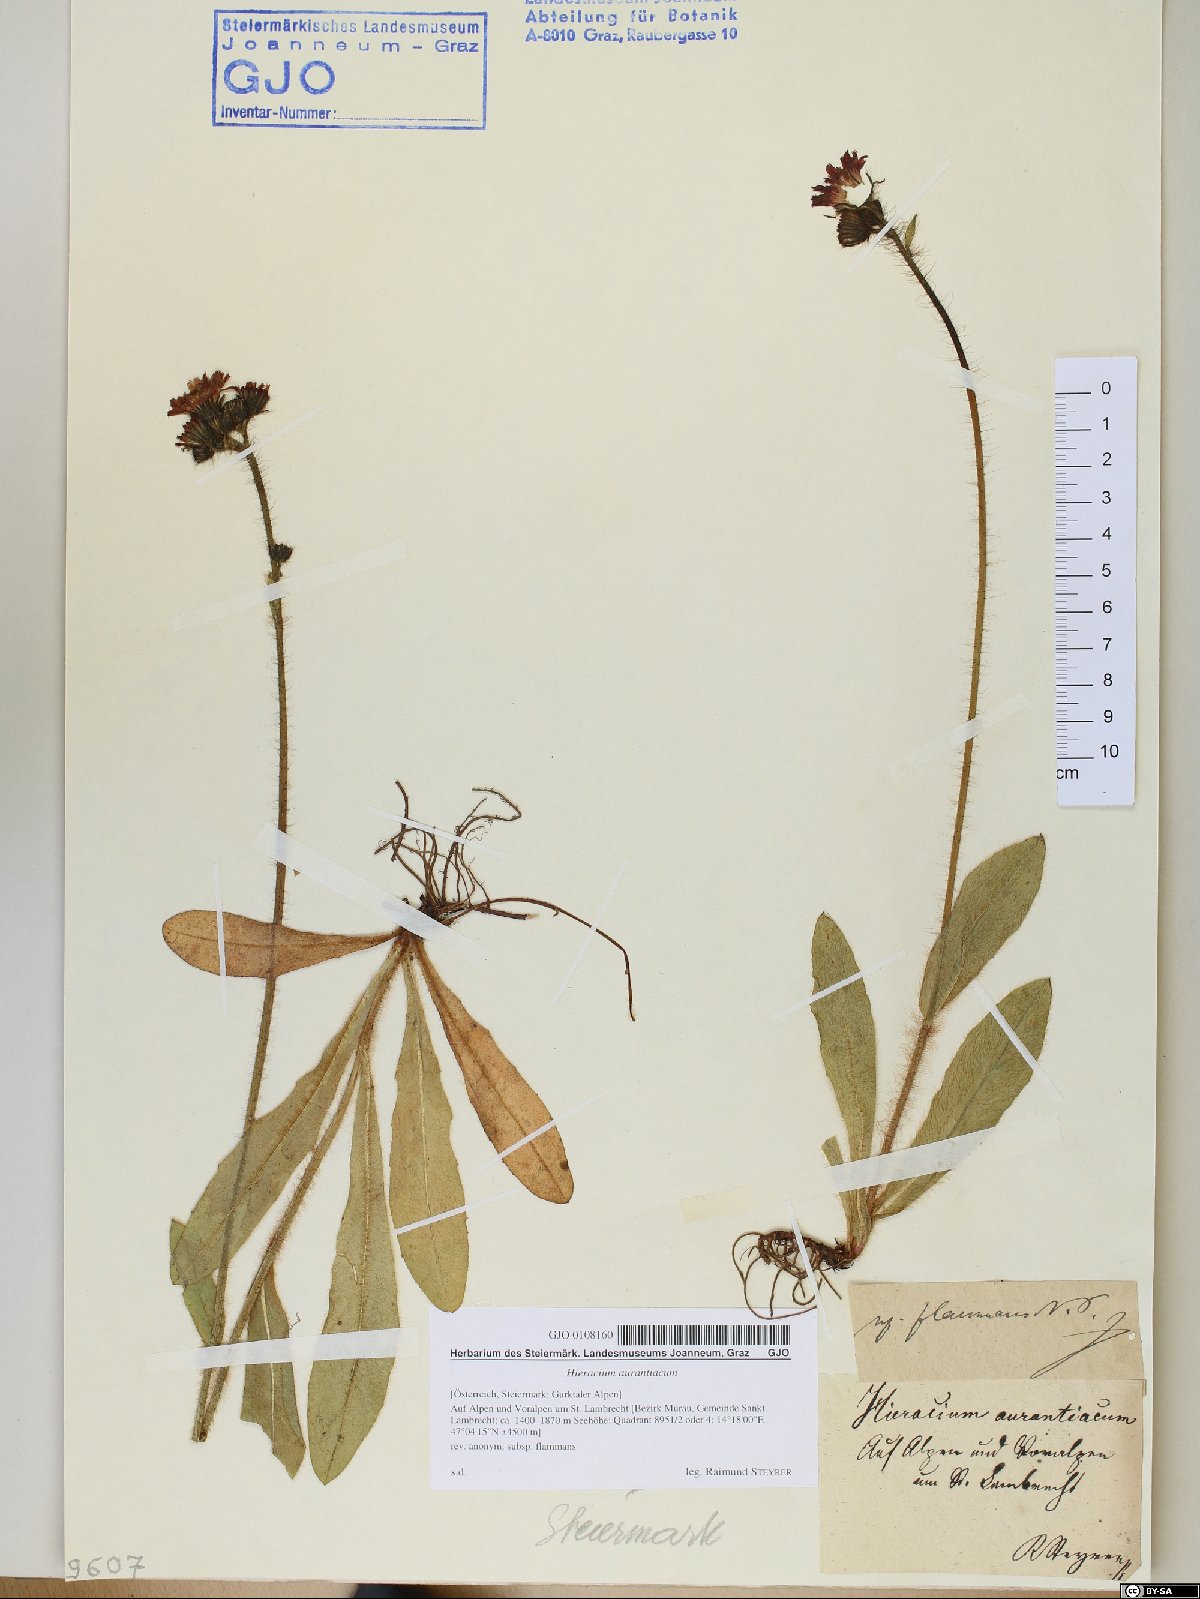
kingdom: Plantae
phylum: Tracheophyta
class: Magnoliopsida
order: Asterales
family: Asteraceae
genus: Pilosella
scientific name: Pilosella aurantiaca
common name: Fox-and-cubs
